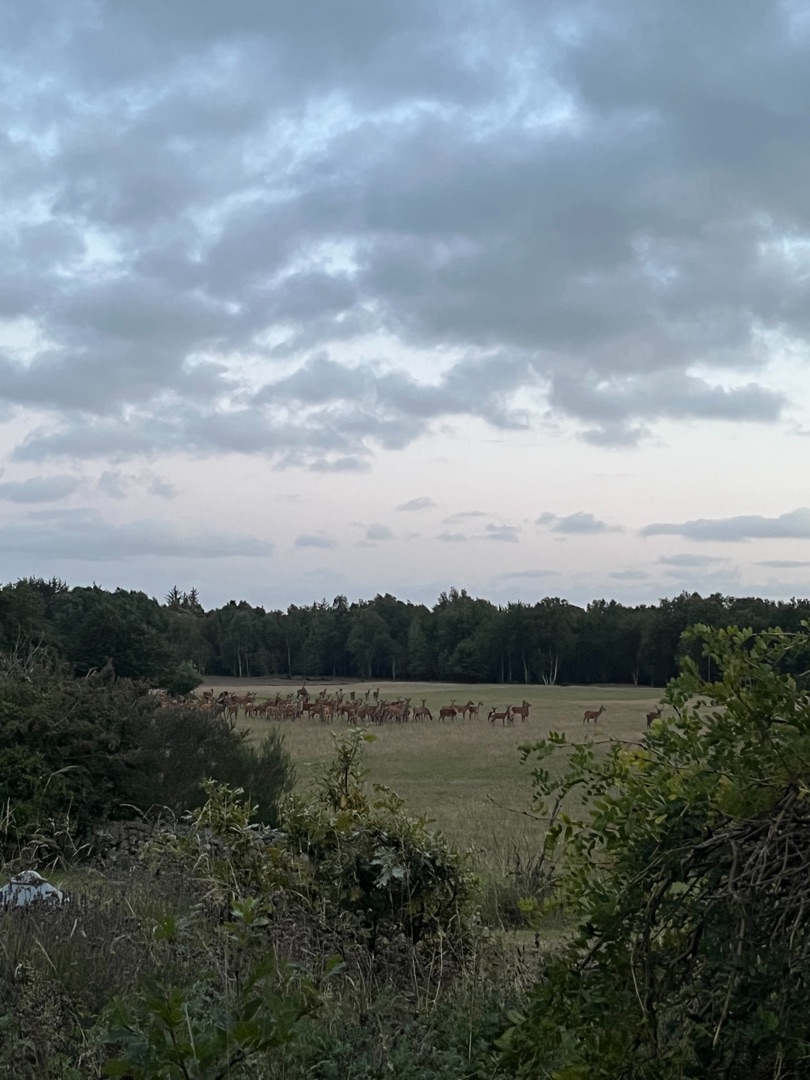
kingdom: Animalia
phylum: Chordata
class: Mammalia
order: Artiodactyla
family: Cervidae
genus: Cervus
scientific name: Cervus elaphus
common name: Krondyr
